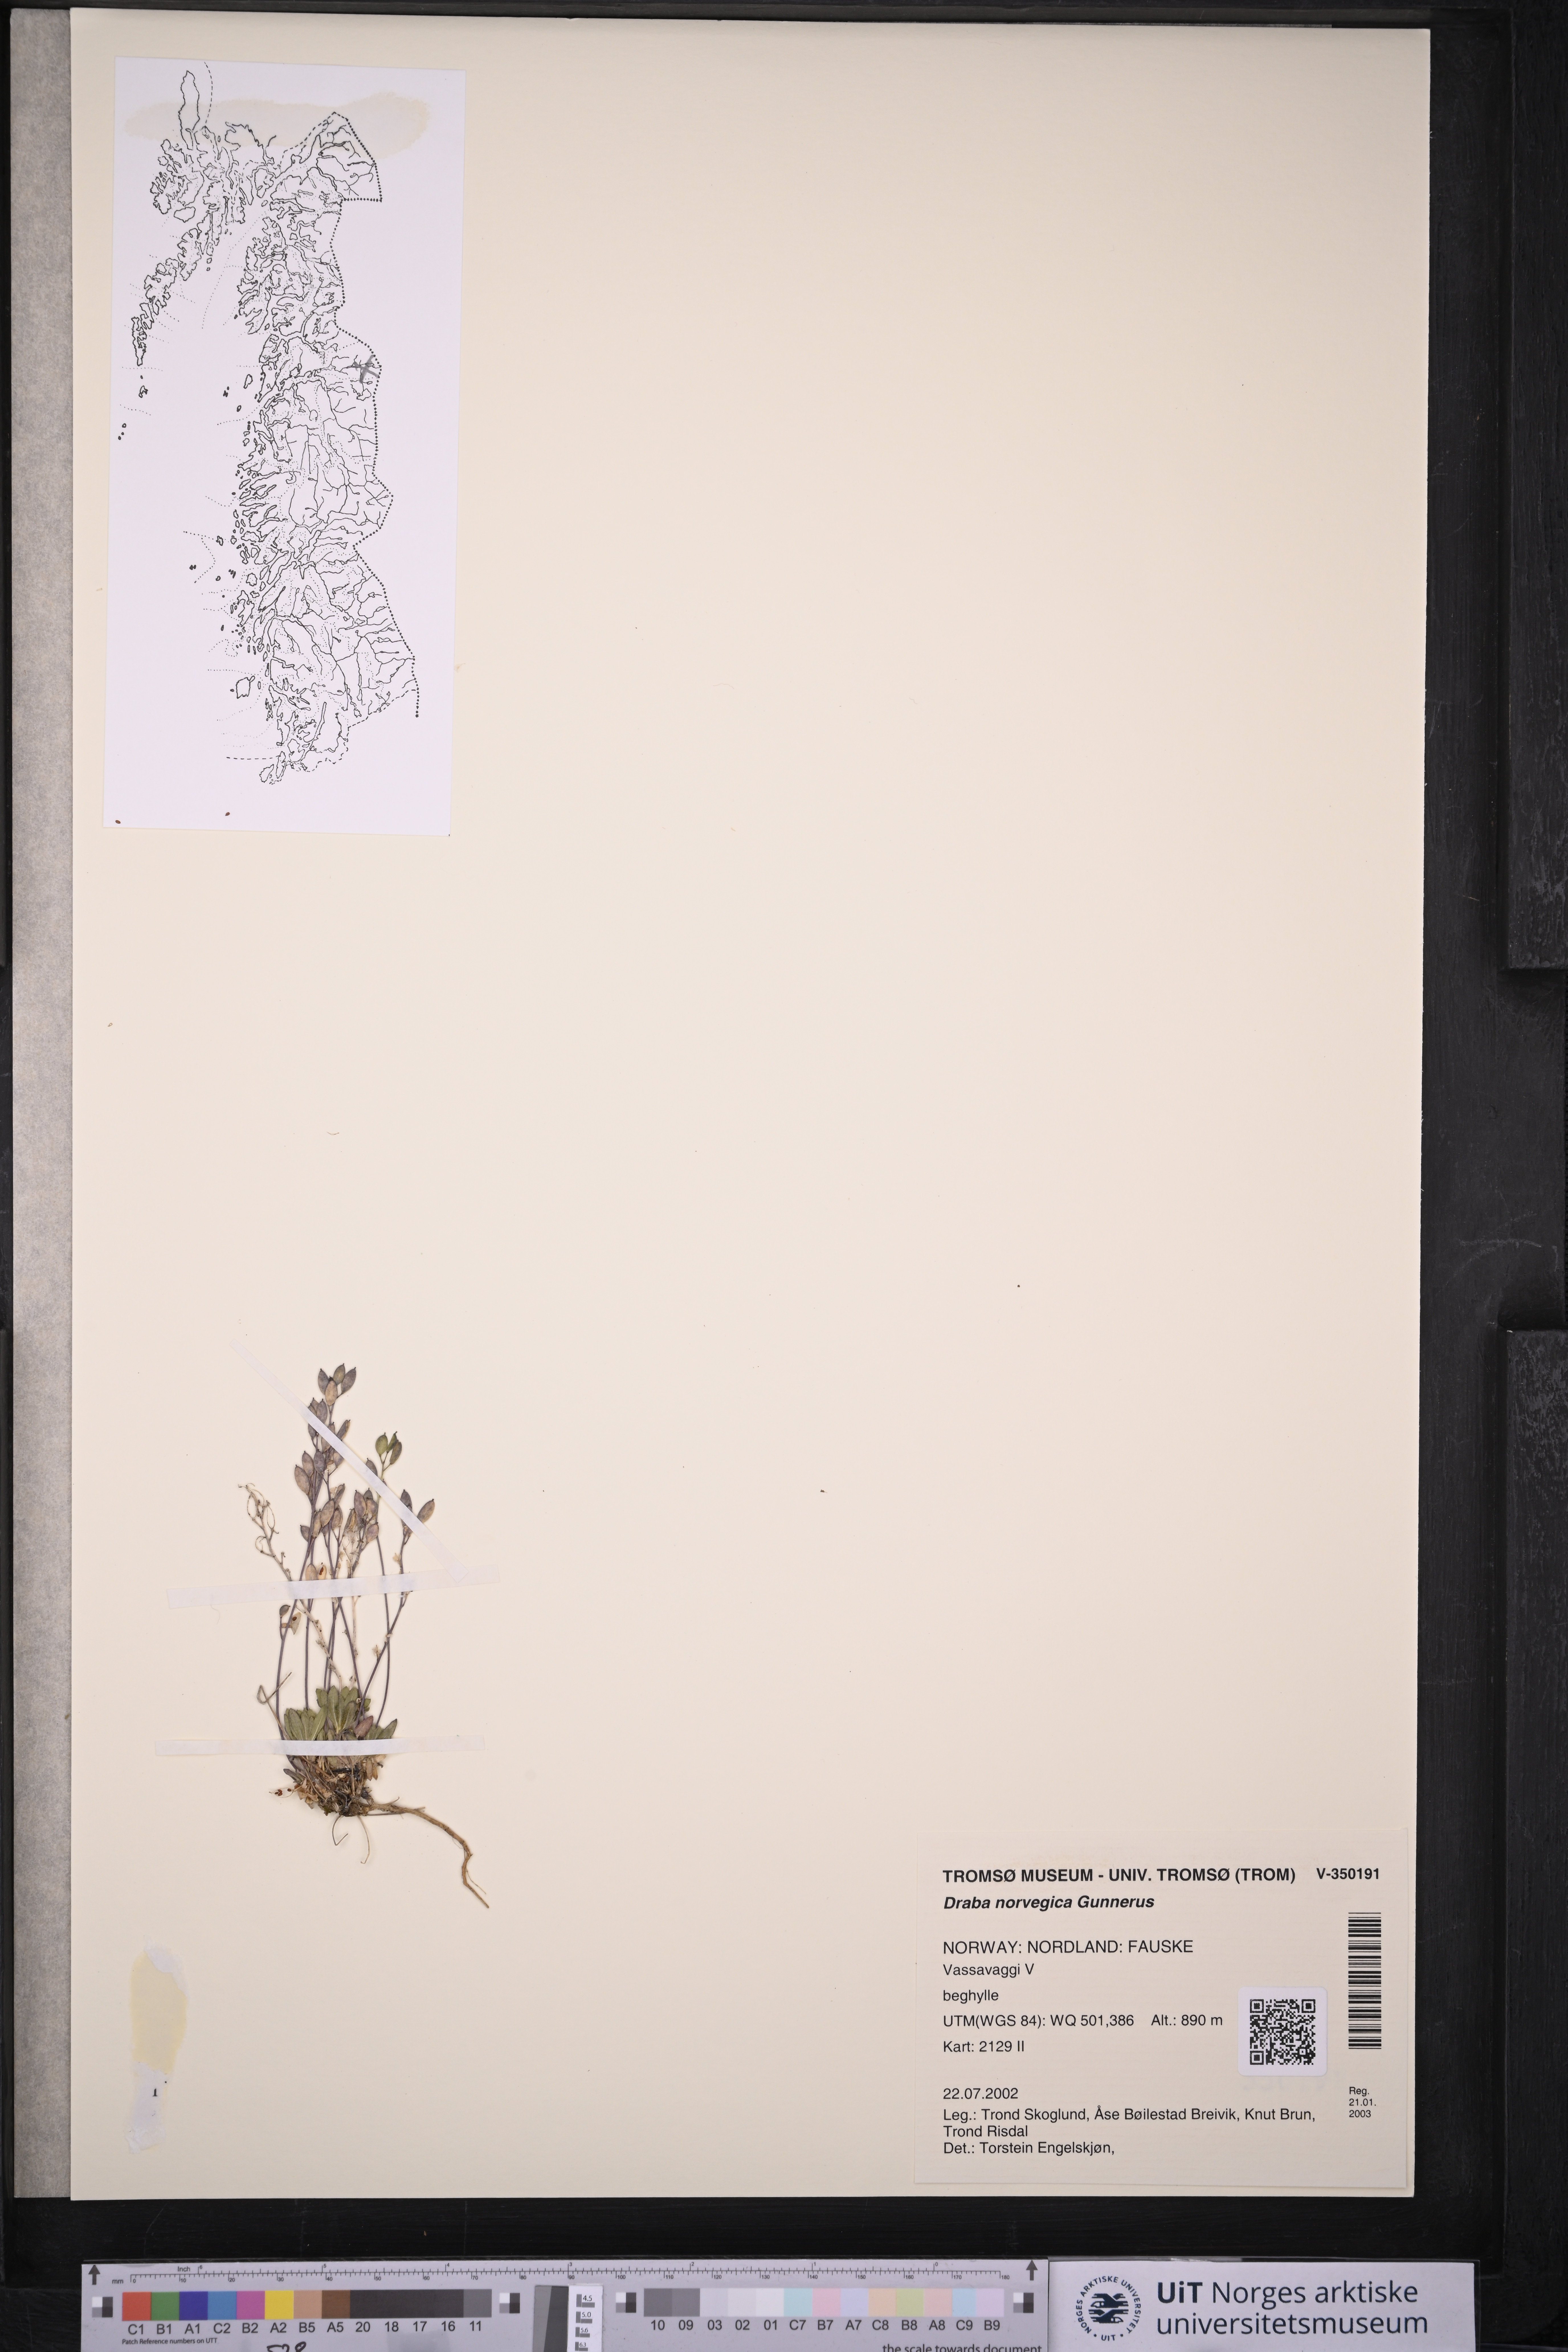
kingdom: Plantae
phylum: Tracheophyta
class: Magnoliopsida
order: Brassicales
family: Brassicaceae
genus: Draba
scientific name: Draba norvegica
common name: Rock whitlowgrass
